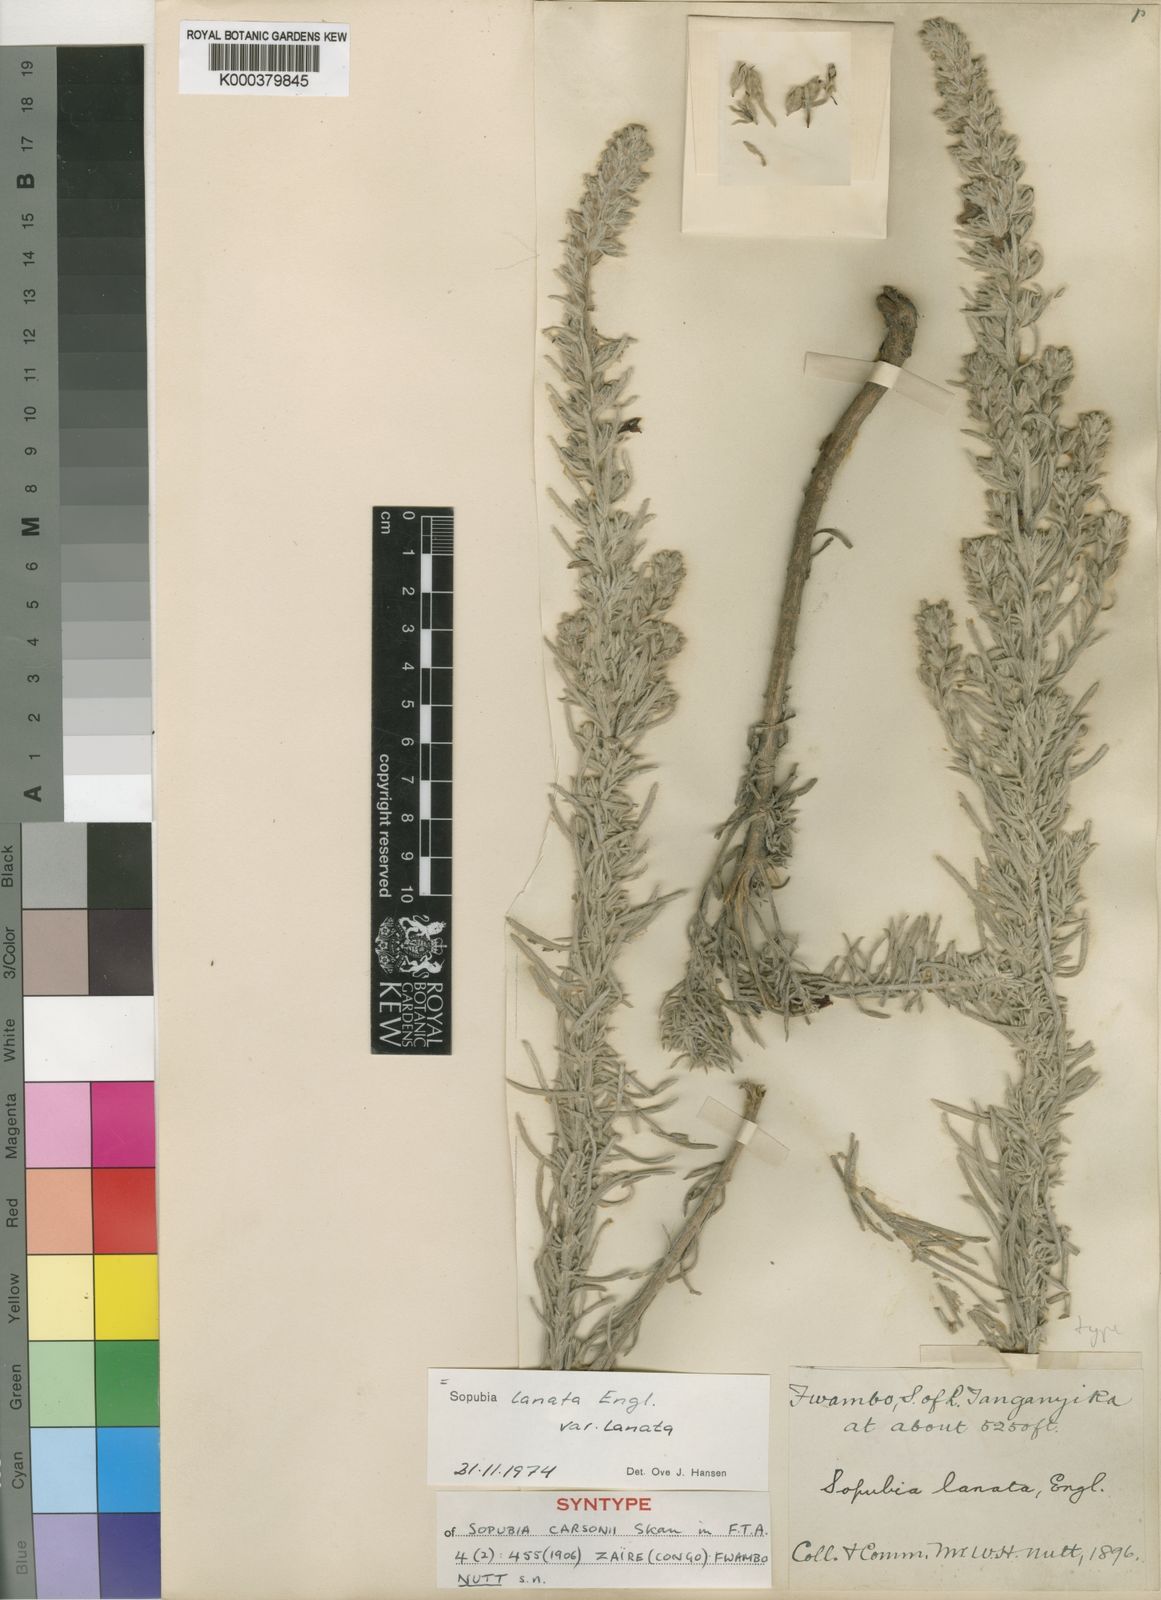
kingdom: Plantae
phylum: Tracheophyta
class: Magnoliopsida
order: Lamiales
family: Orobanchaceae
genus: Sopubia
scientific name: Sopubia lanata
